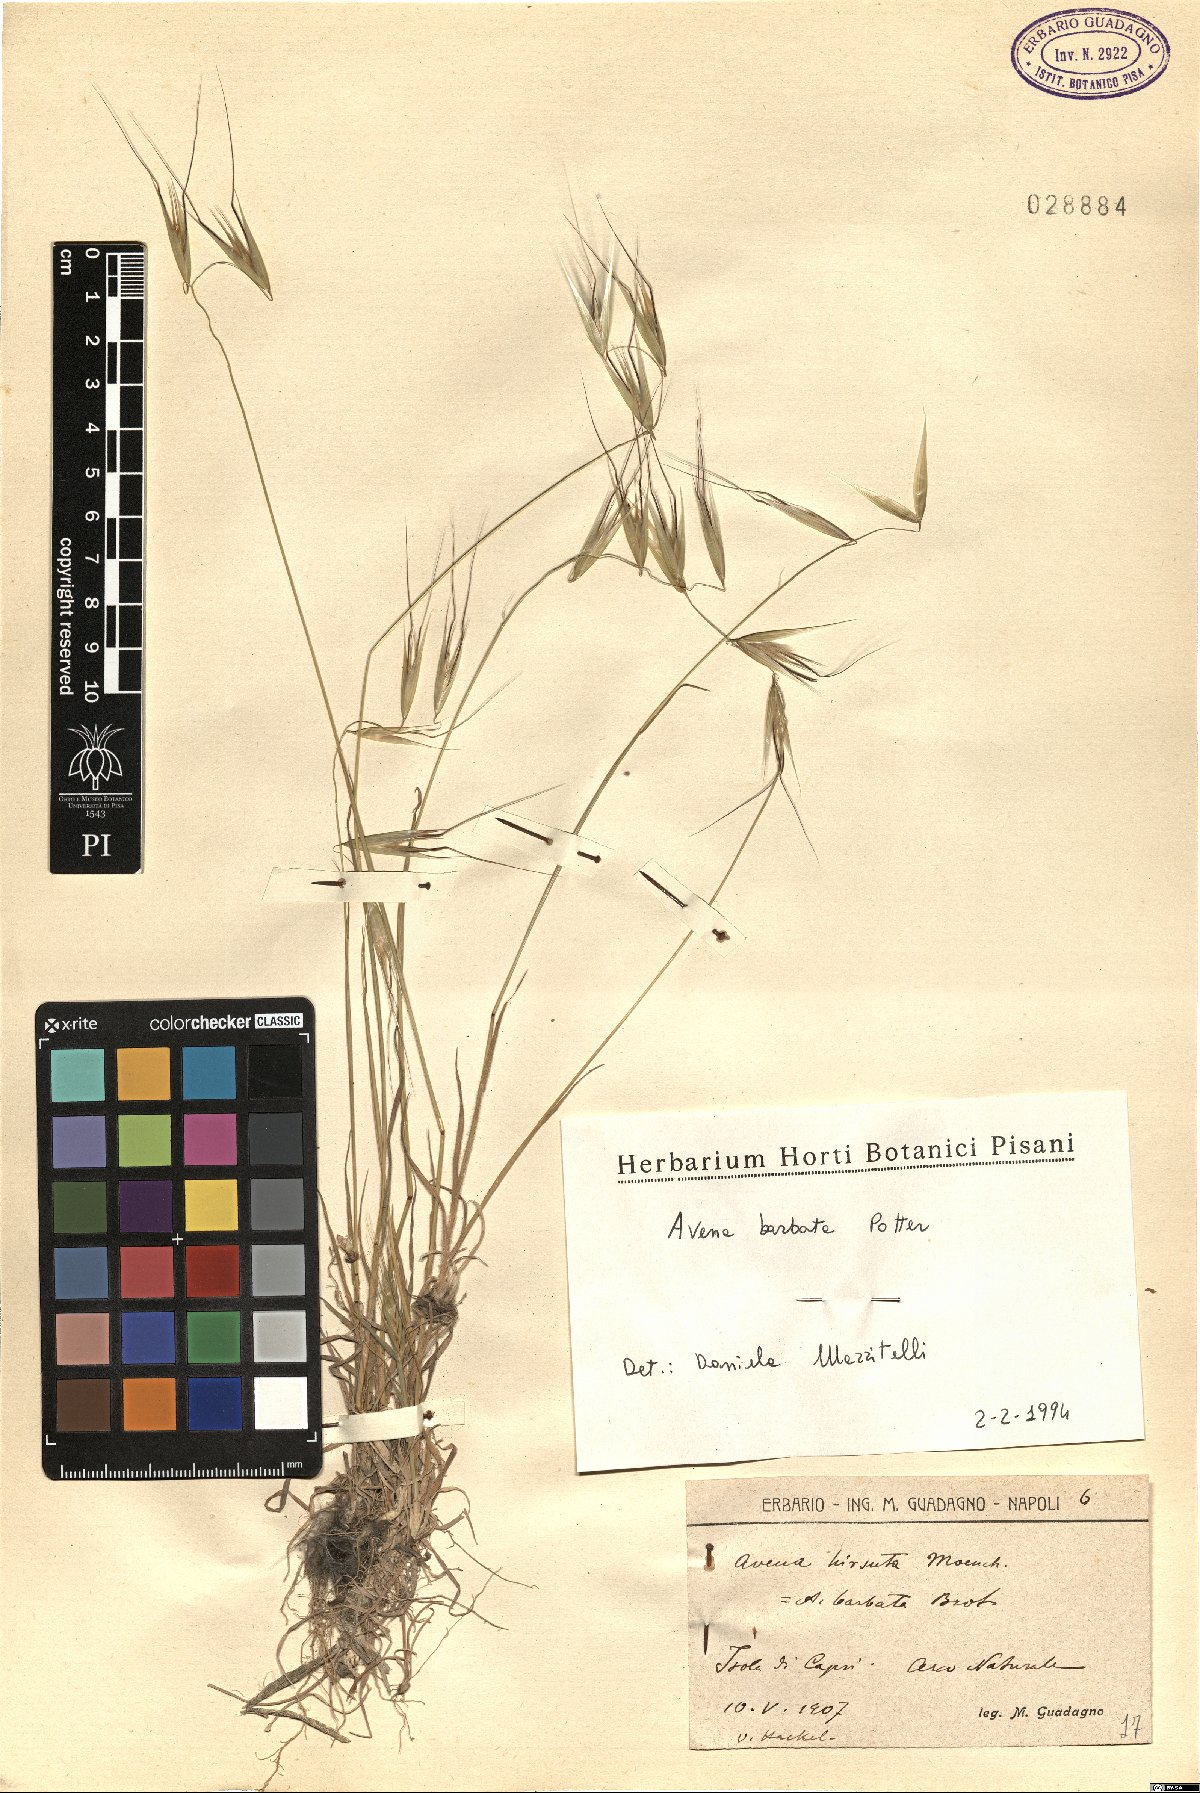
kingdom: Plantae
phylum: Tracheophyta
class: Liliopsida
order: Poales
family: Poaceae
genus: Avena
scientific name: Avena barbata
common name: Slender oat
